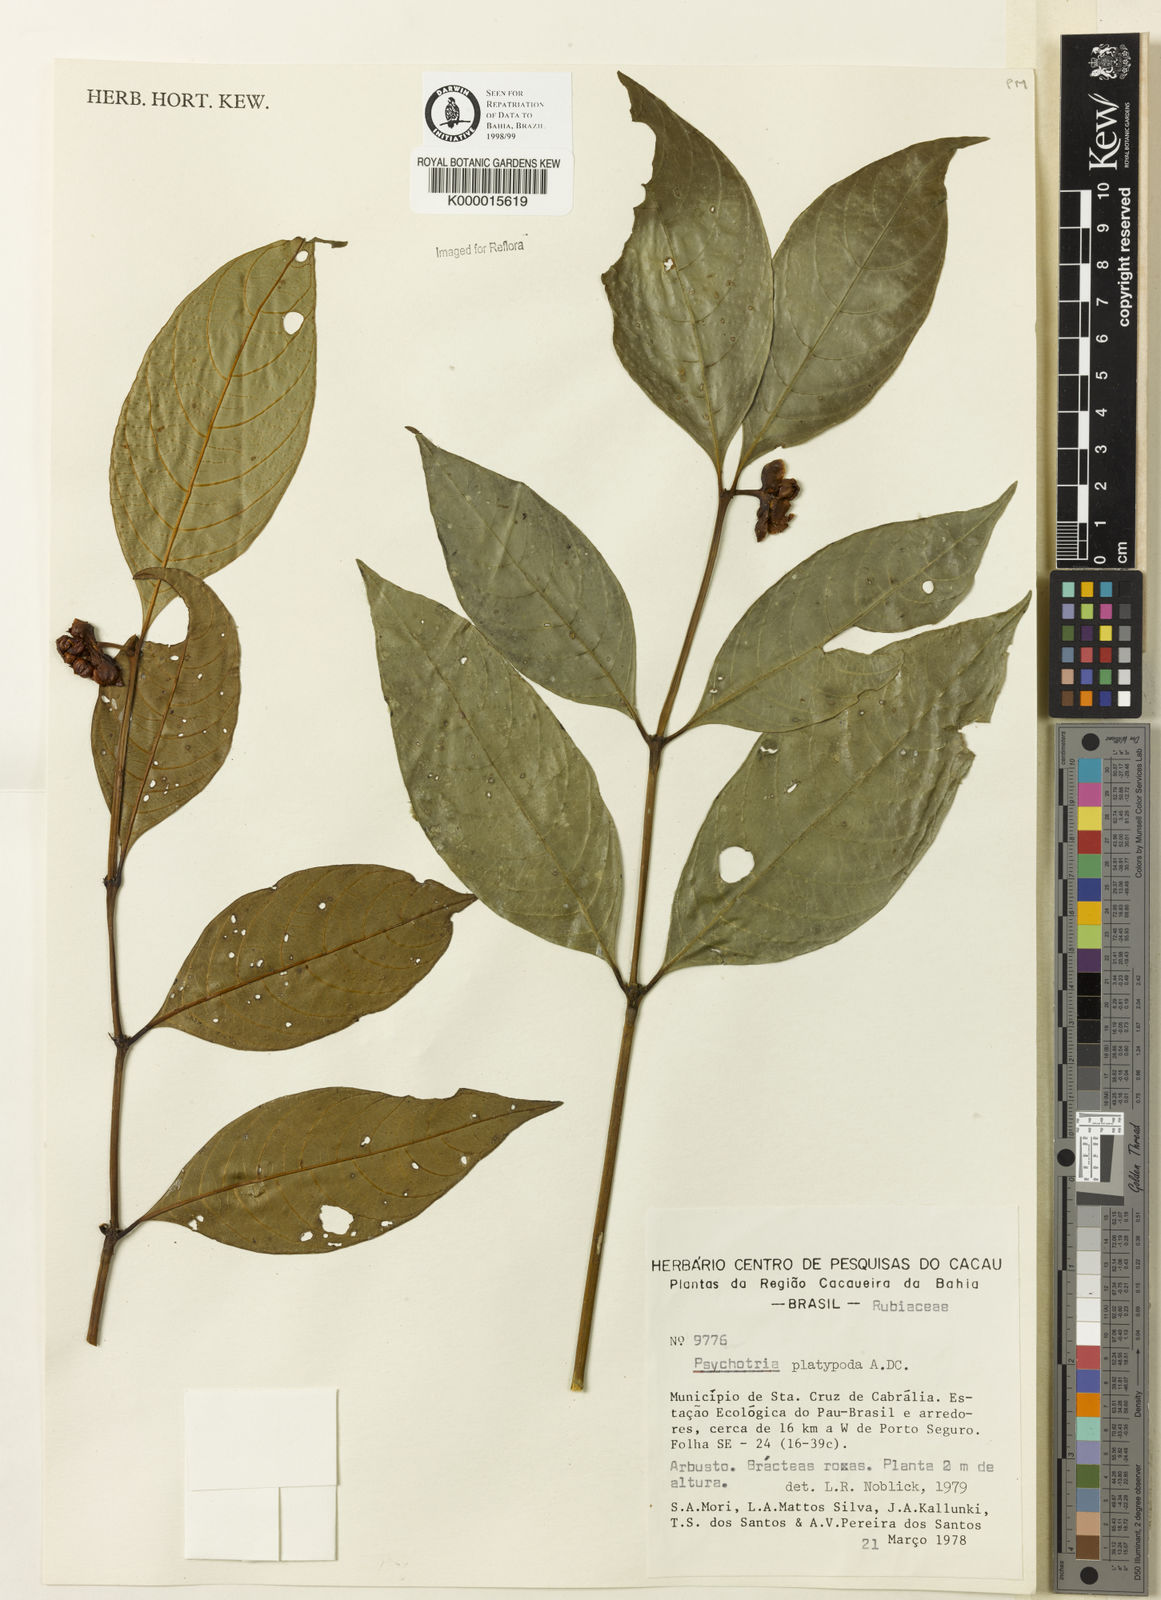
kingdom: Plantae
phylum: Tracheophyta
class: Magnoliopsida
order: Gentianales
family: Rubiaceae
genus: Palicourea
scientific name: Palicourea dichotoma
